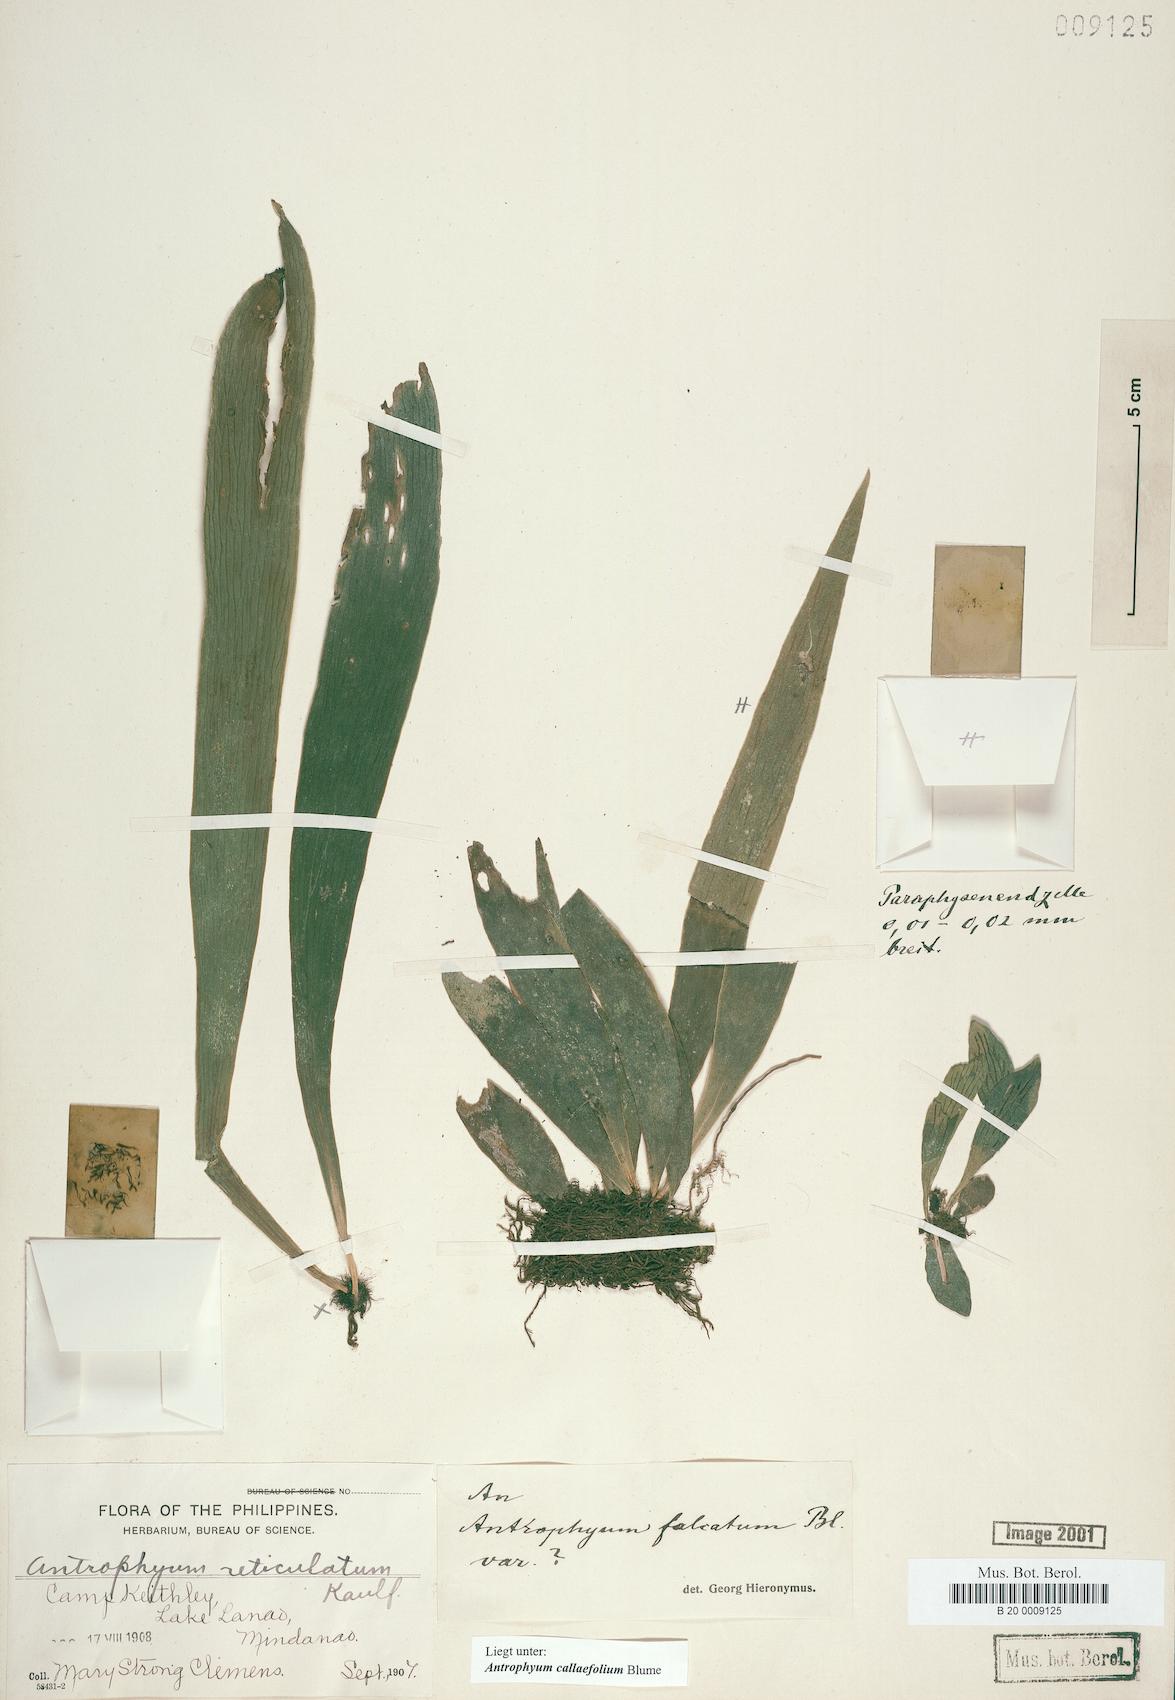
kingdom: Plantae
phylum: Tracheophyta
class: Polypodiopsida
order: Polypodiales
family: Pteridaceae
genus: Antrophyum
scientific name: Antrophyum callifolium
